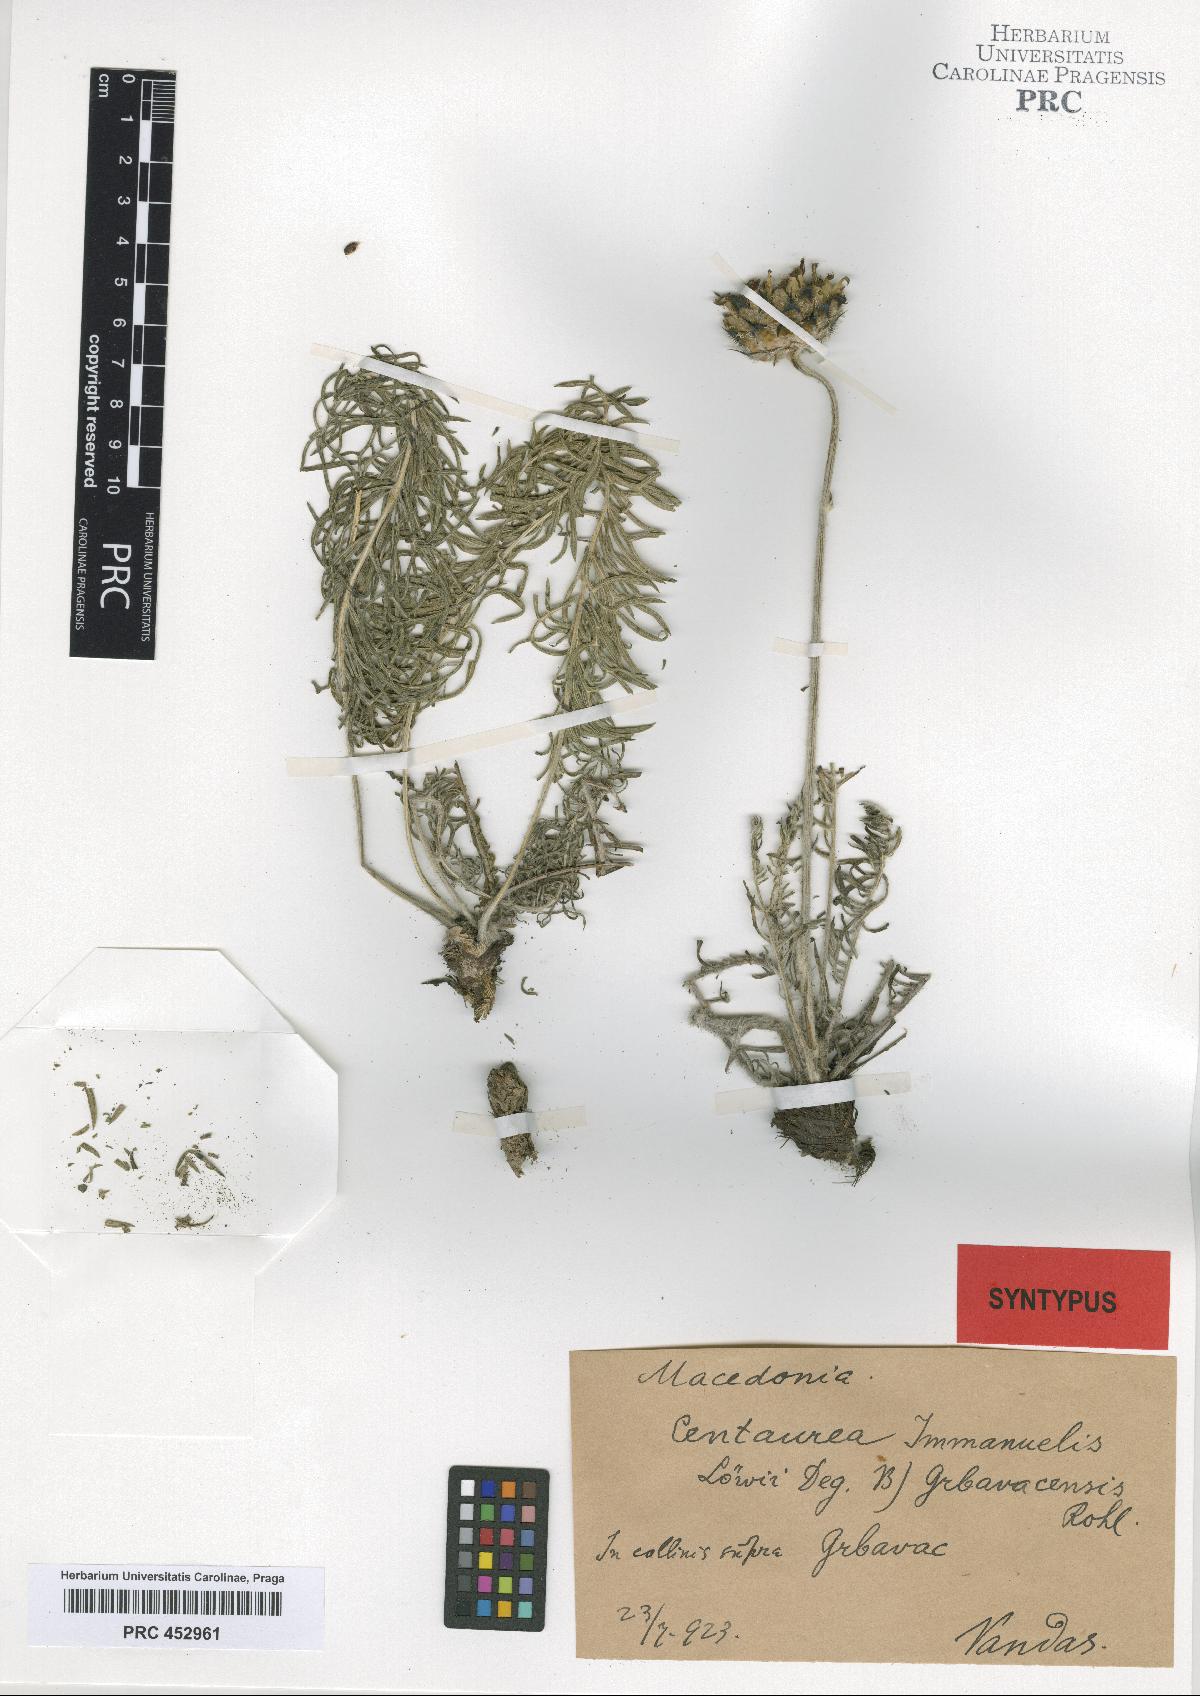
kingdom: Plantae
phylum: Tracheophyta
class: Magnoliopsida
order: Asterales
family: Asteraceae
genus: Centaurea
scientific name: Centaurea grbavacensis
